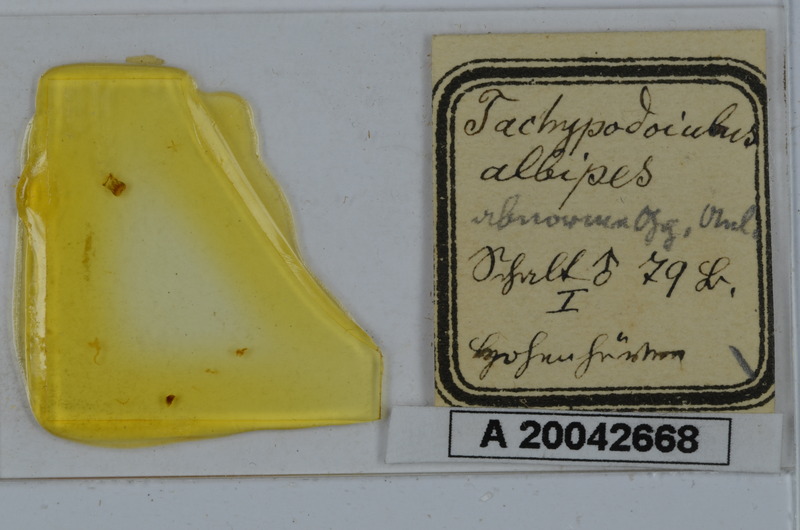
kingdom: Animalia
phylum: Arthropoda
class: Diplopoda
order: Julida
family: Julidae
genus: Tachypodoiulus
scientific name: Tachypodoiulus niger
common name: White-legged snake millipede
